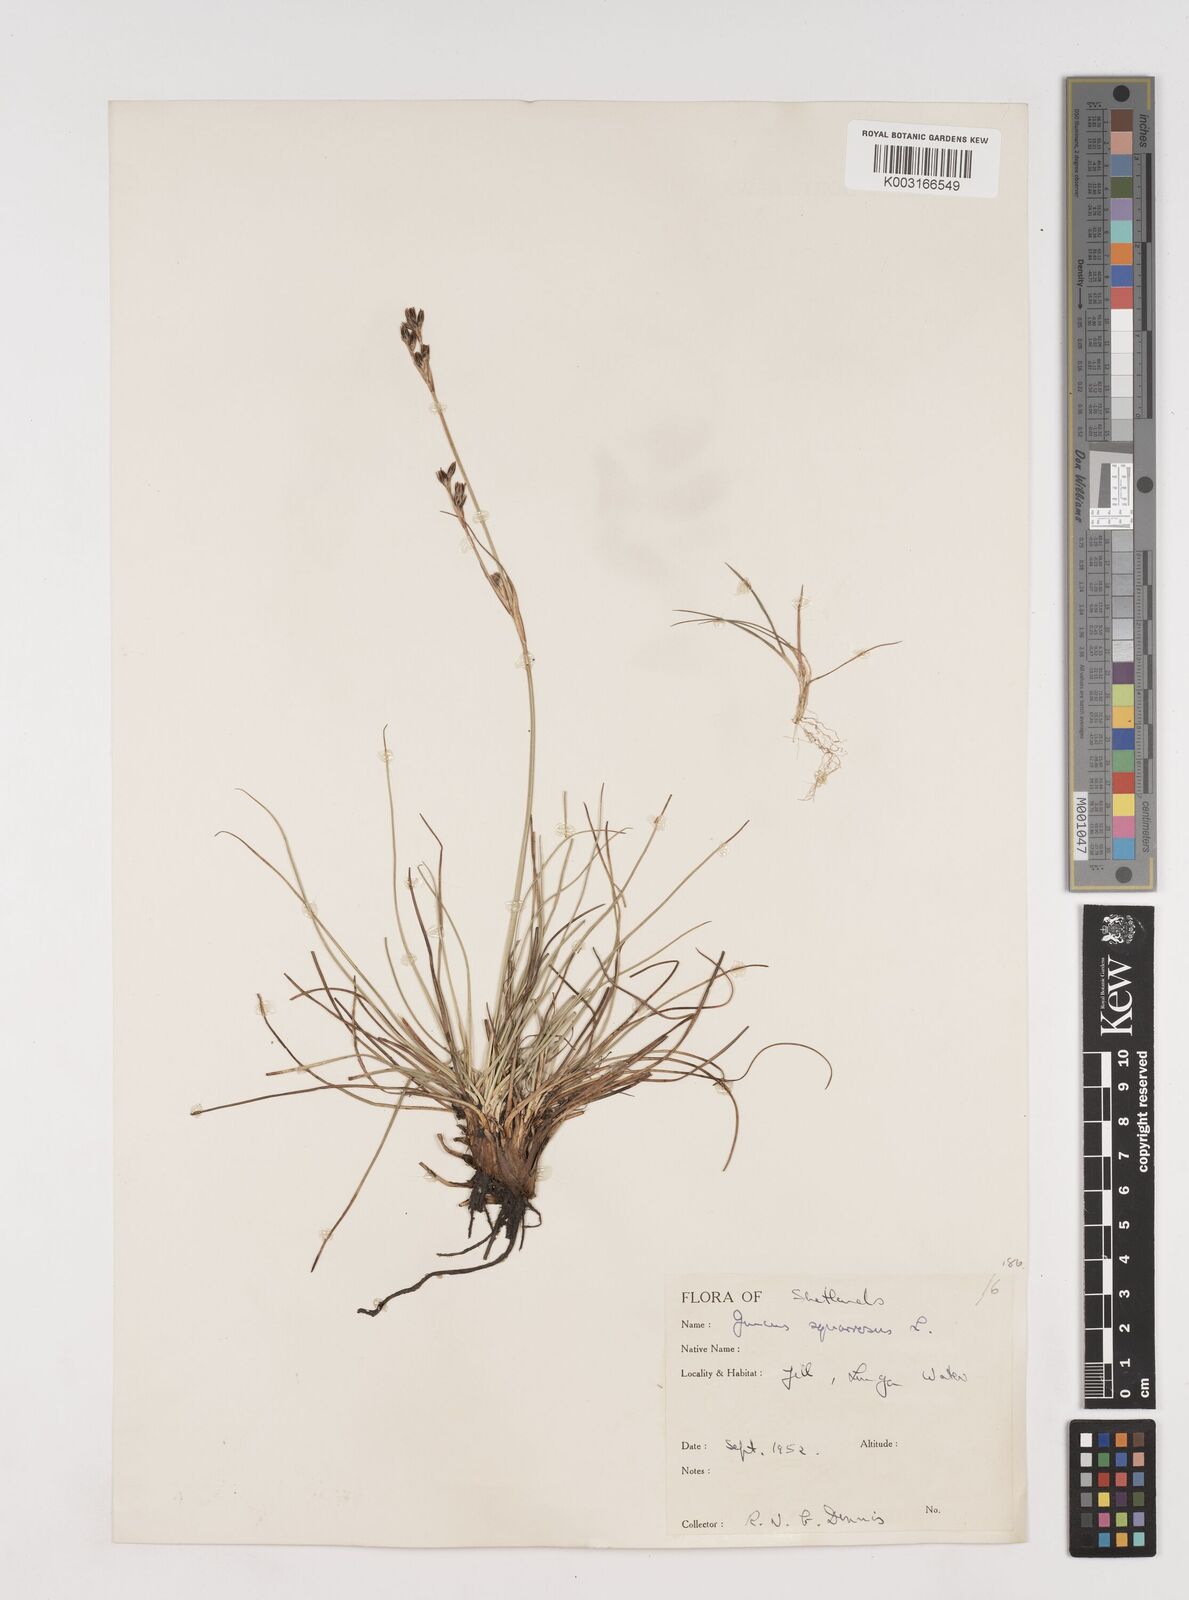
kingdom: Plantae
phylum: Tracheophyta
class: Liliopsida
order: Poales
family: Juncaceae
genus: Juncus
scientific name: Juncus squarrosus
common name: Heath rush
